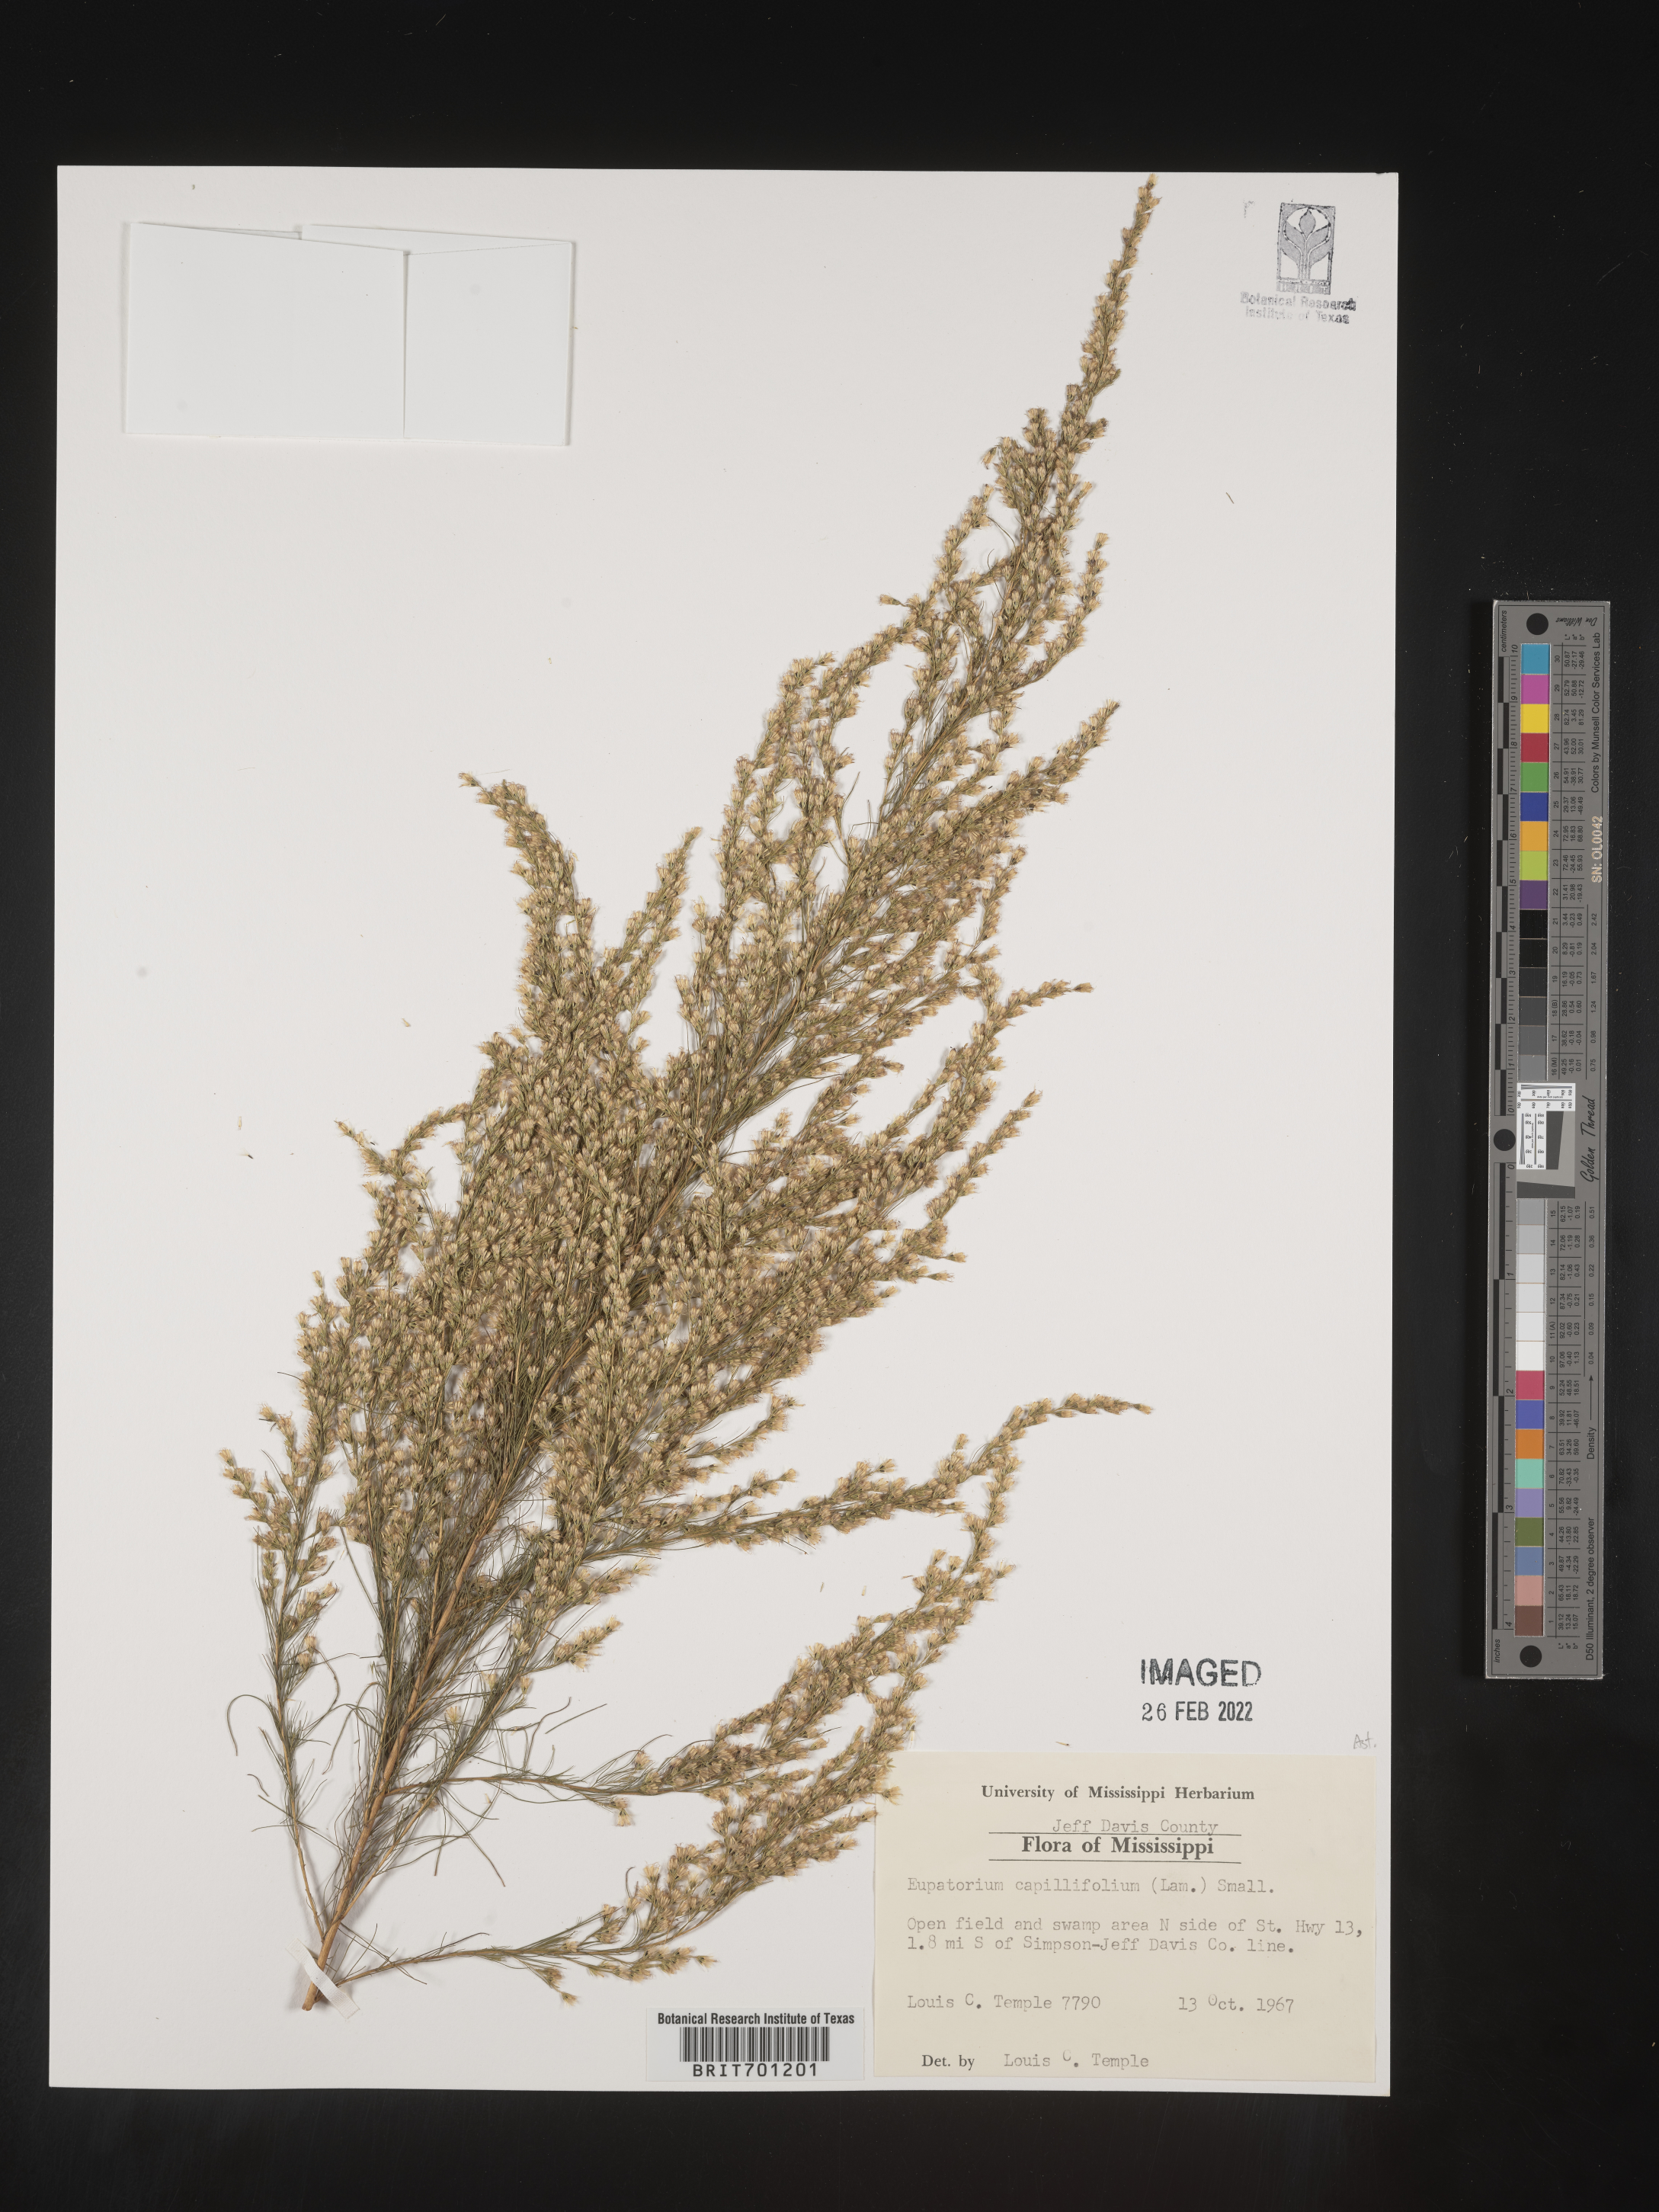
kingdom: Plantae
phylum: Tracheophyta
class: Magnoliopsida
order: Asterales
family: Asteraceae
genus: Eupatorium
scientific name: Eupatorium capillifolium
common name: Dog-fennel
